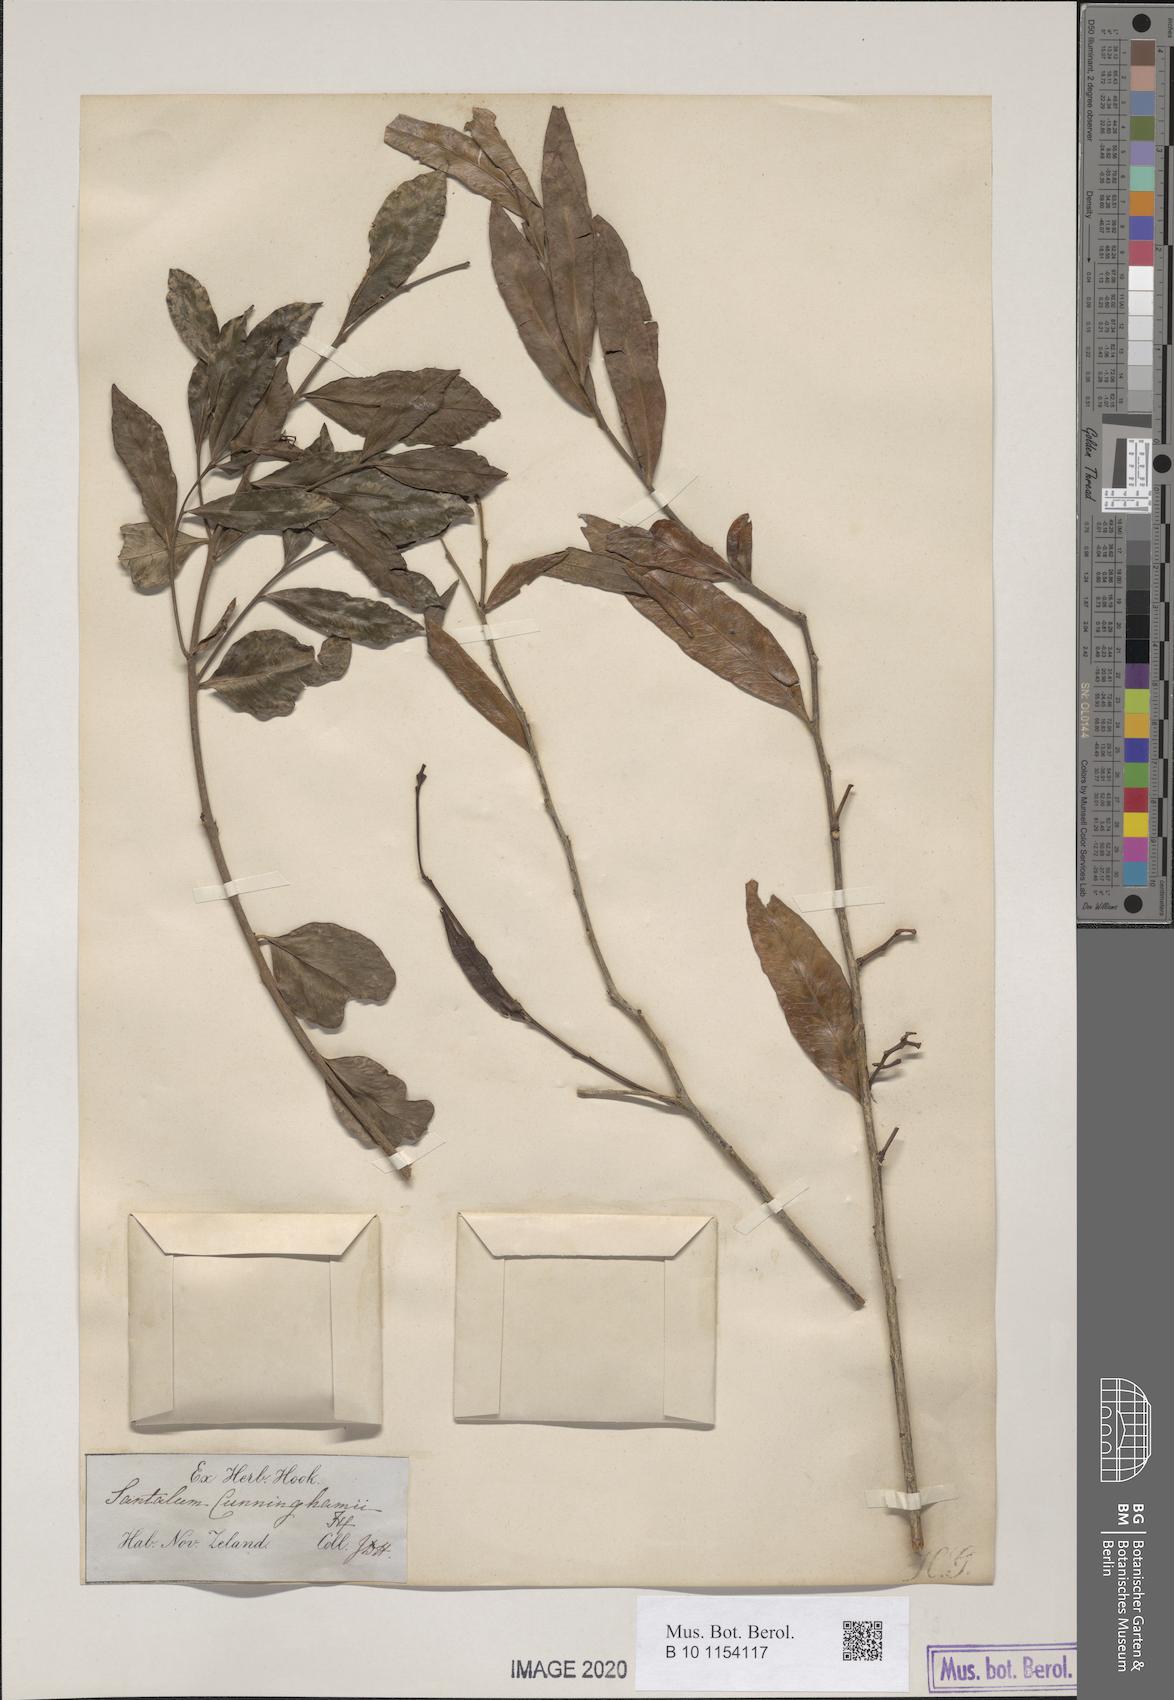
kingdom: Plantae
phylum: Tracheophyta
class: Magnoliopsida
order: Santalales
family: Nanodeaceae
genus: Mida
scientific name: Mida salicifolia
